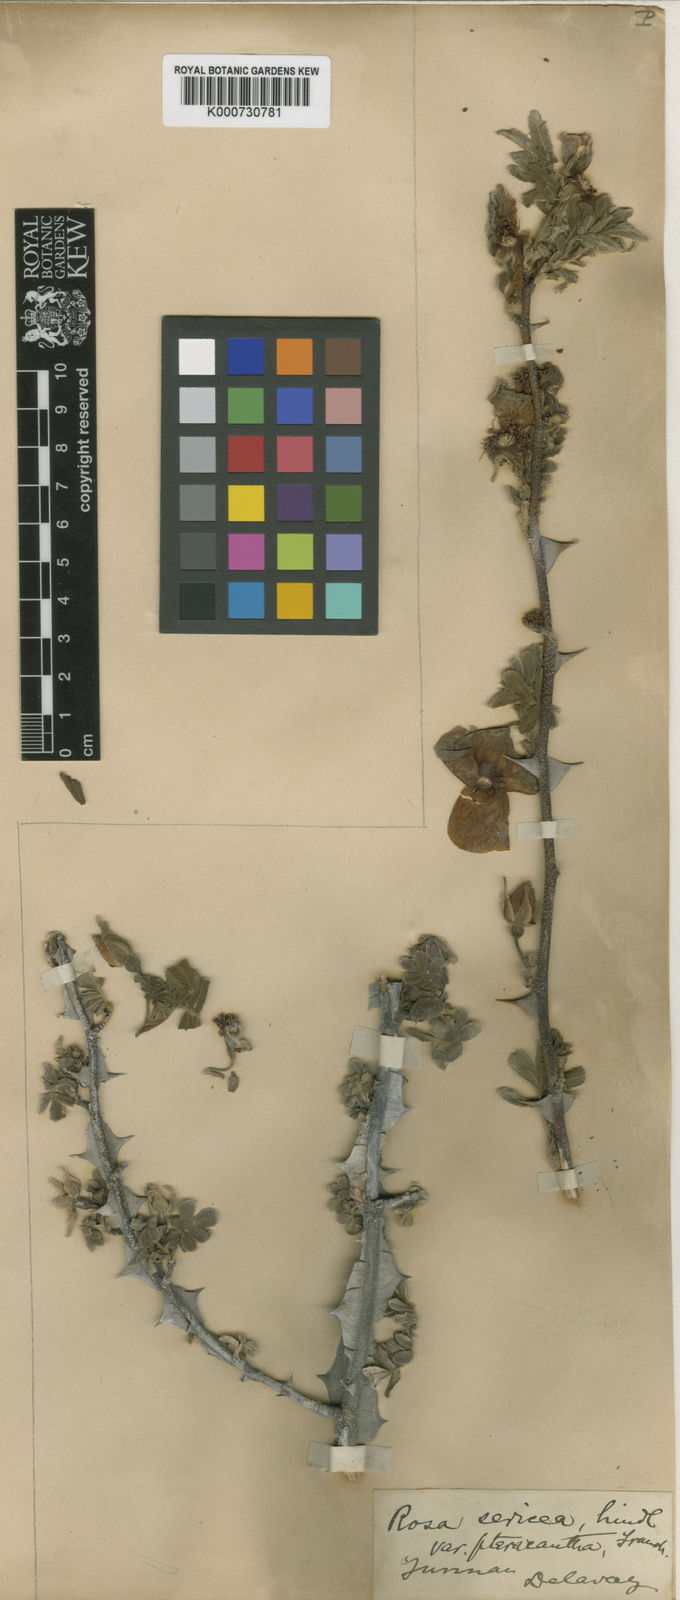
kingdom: Plantae
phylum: Tracheophyta
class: Magnoliopsida
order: Rosales
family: Rosaceae
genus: Rosa
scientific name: Rosa sericea
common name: Silky rose
